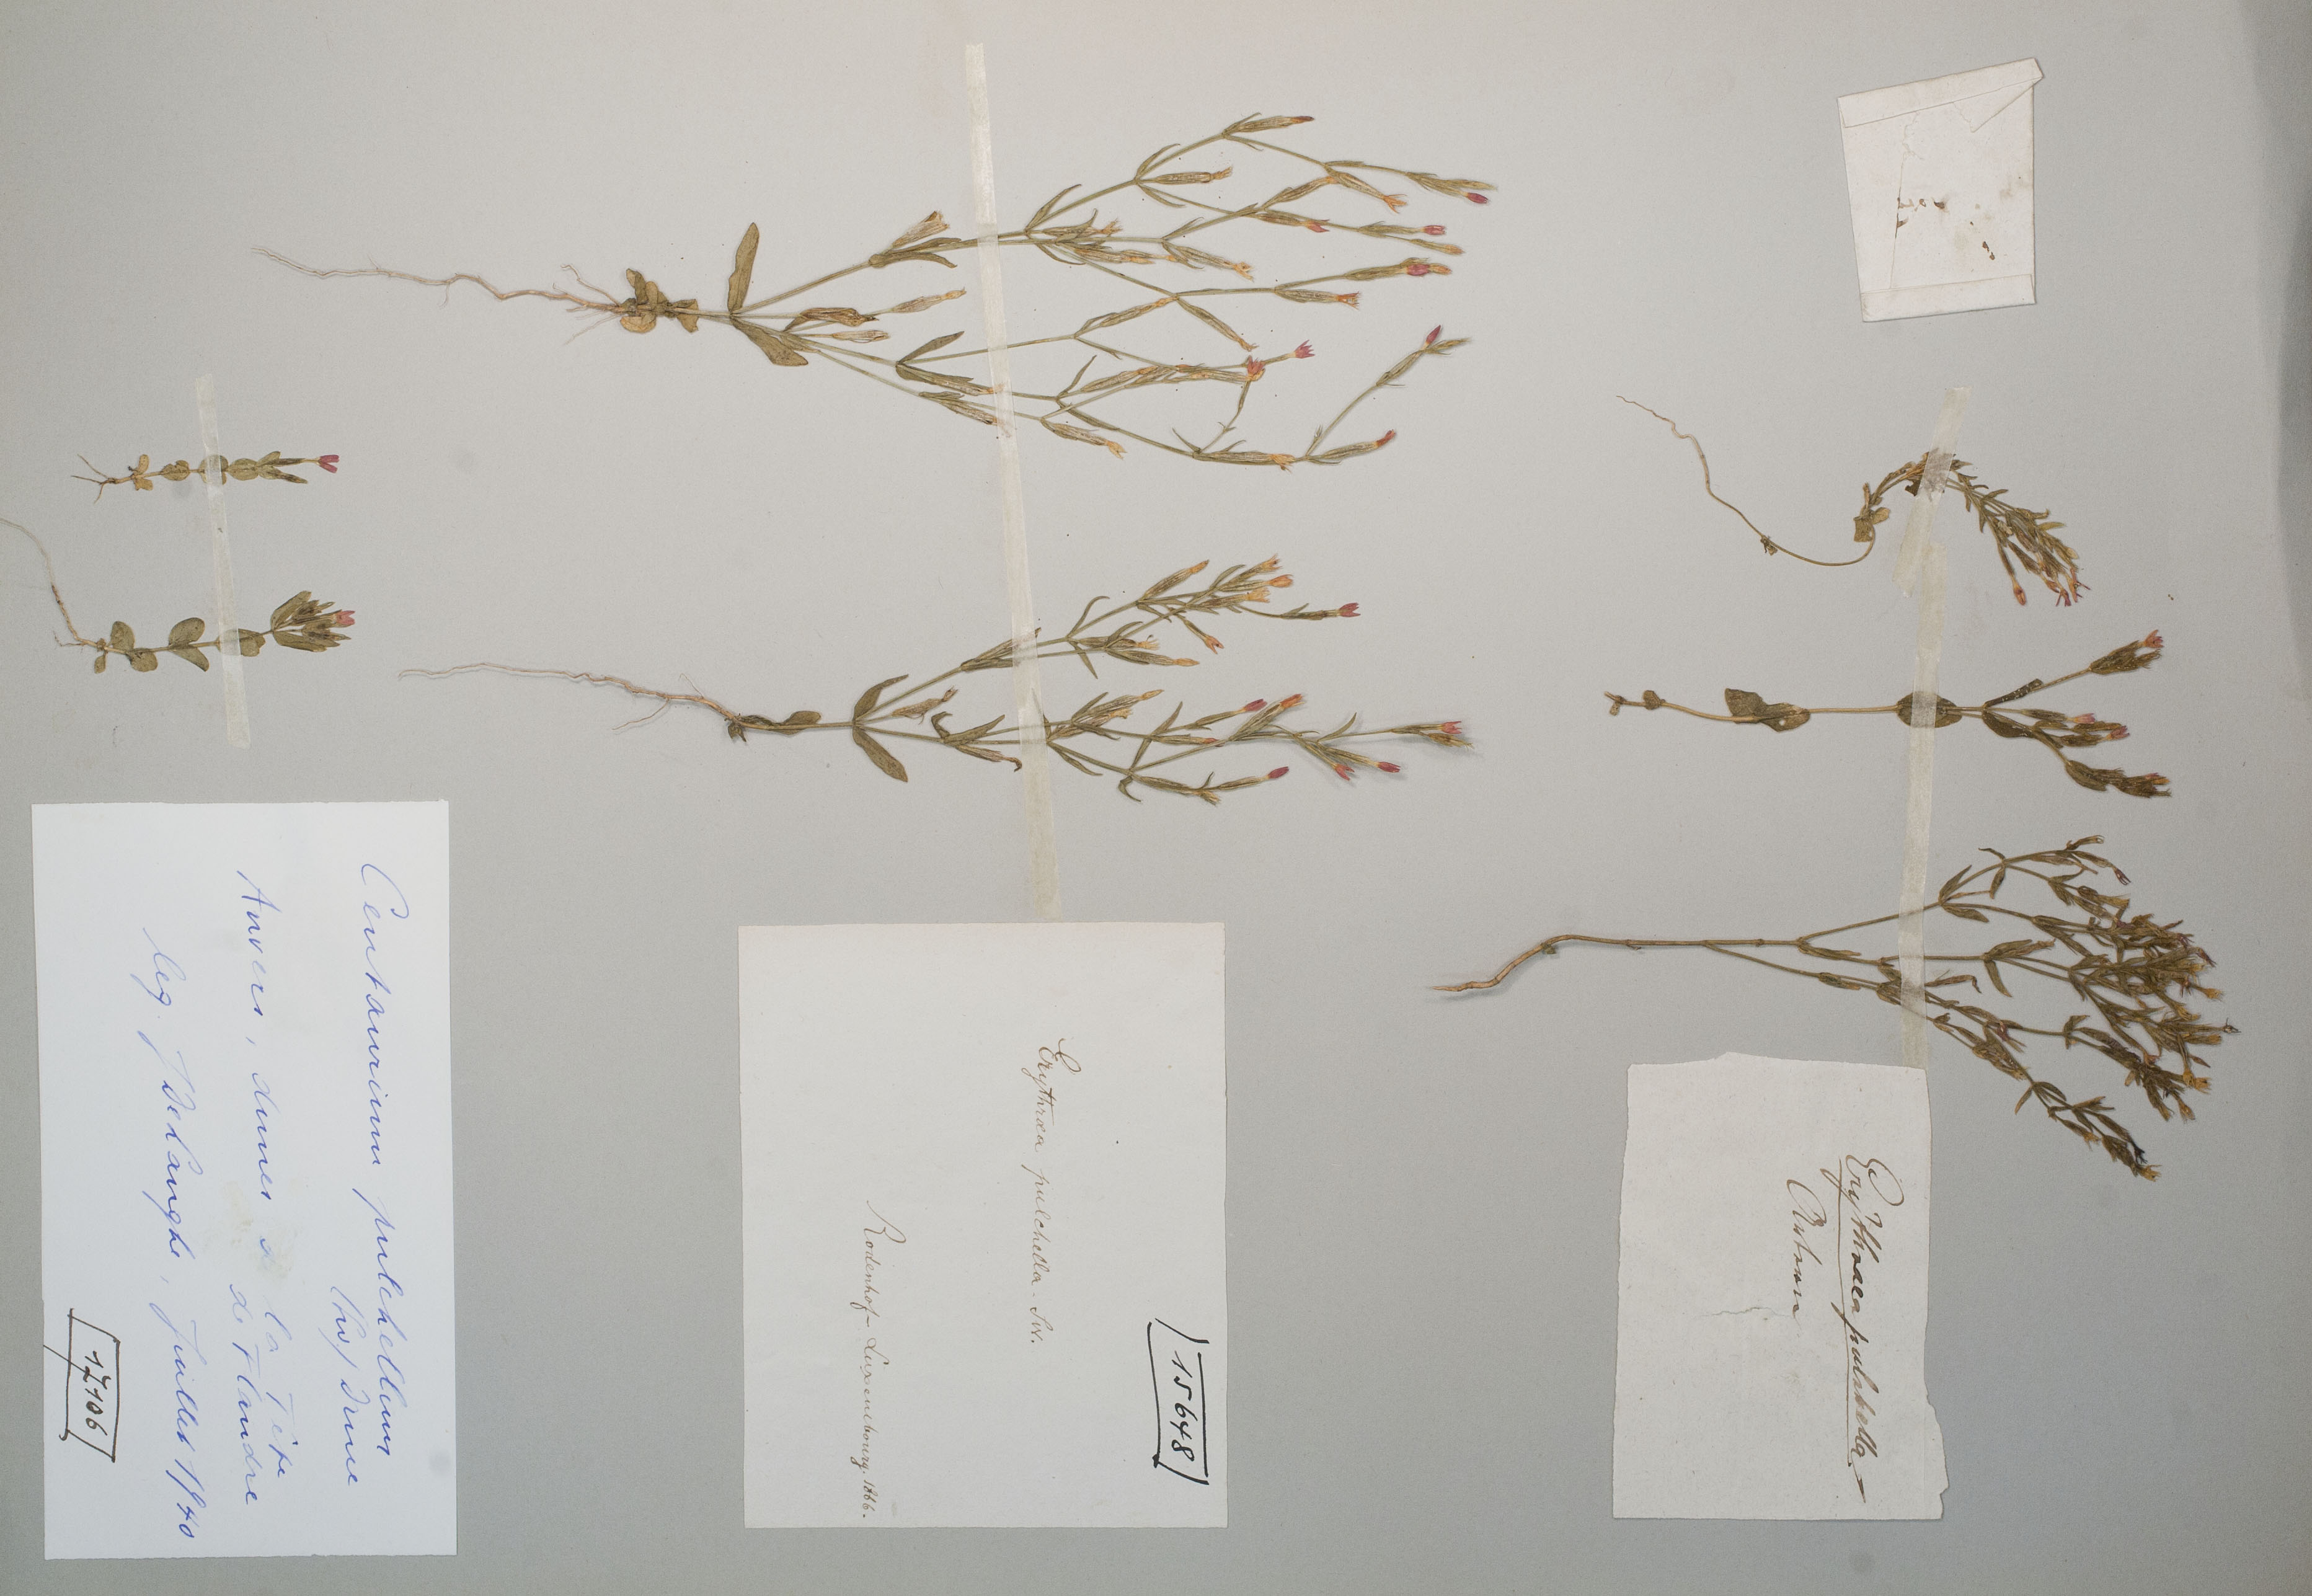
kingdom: Plantae
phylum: Tracheophyta
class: Magnoliopsida
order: Gentianales
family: Gentianaceae
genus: Centaurium
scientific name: Centaurium pulchellum
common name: Lesser centaury
